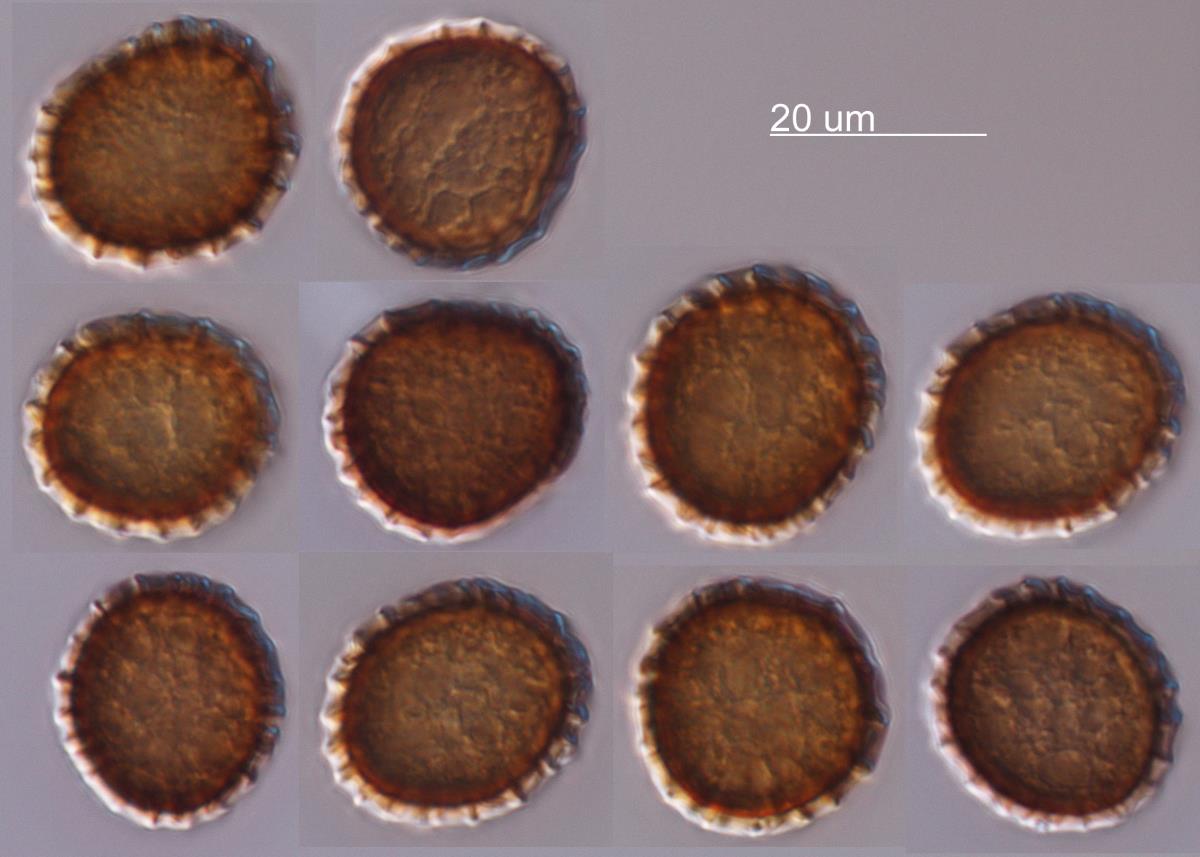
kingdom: Fungi
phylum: Basidiomycota
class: Exobasidiomycetes
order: Tilletiales
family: Tilletiaceae
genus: Tilletia
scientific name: Tilletia anthoxanthi
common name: Sweet vernal smut
